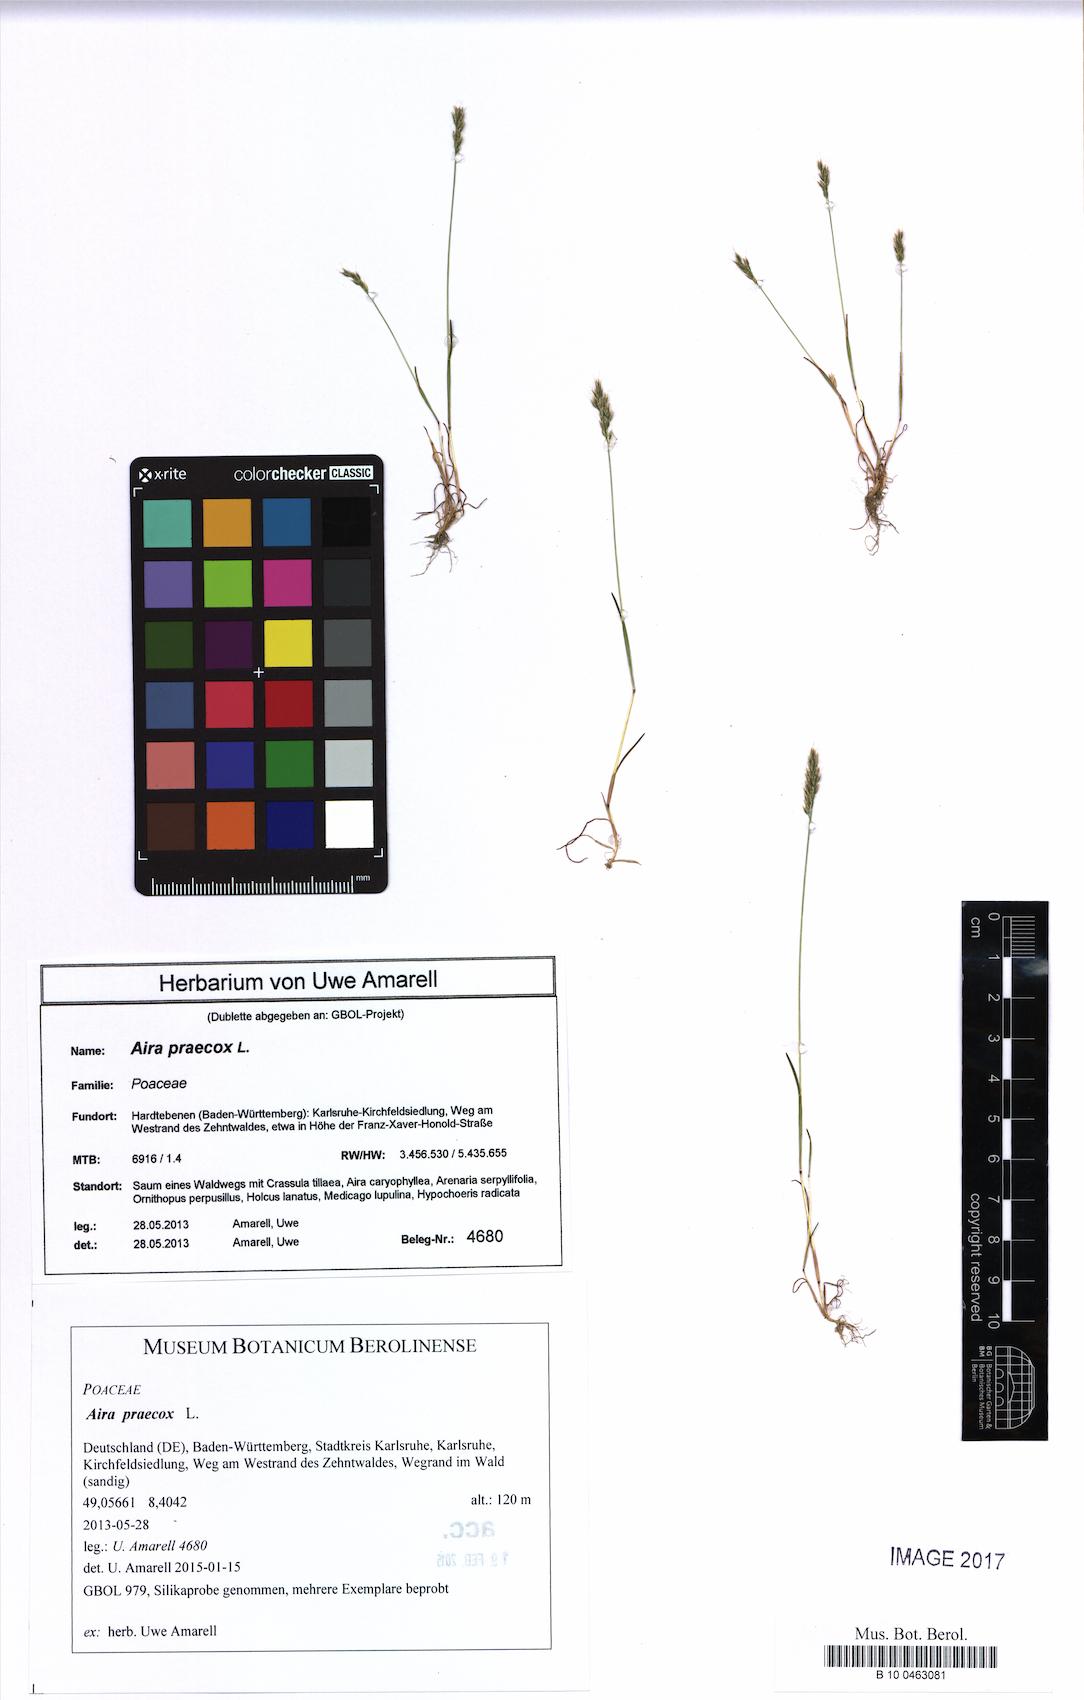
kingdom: Plantae
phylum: Tracheophyta
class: Liliopsida
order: Poales
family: Poaceae
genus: Aira
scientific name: Aira praecox
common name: Early hair-grass
